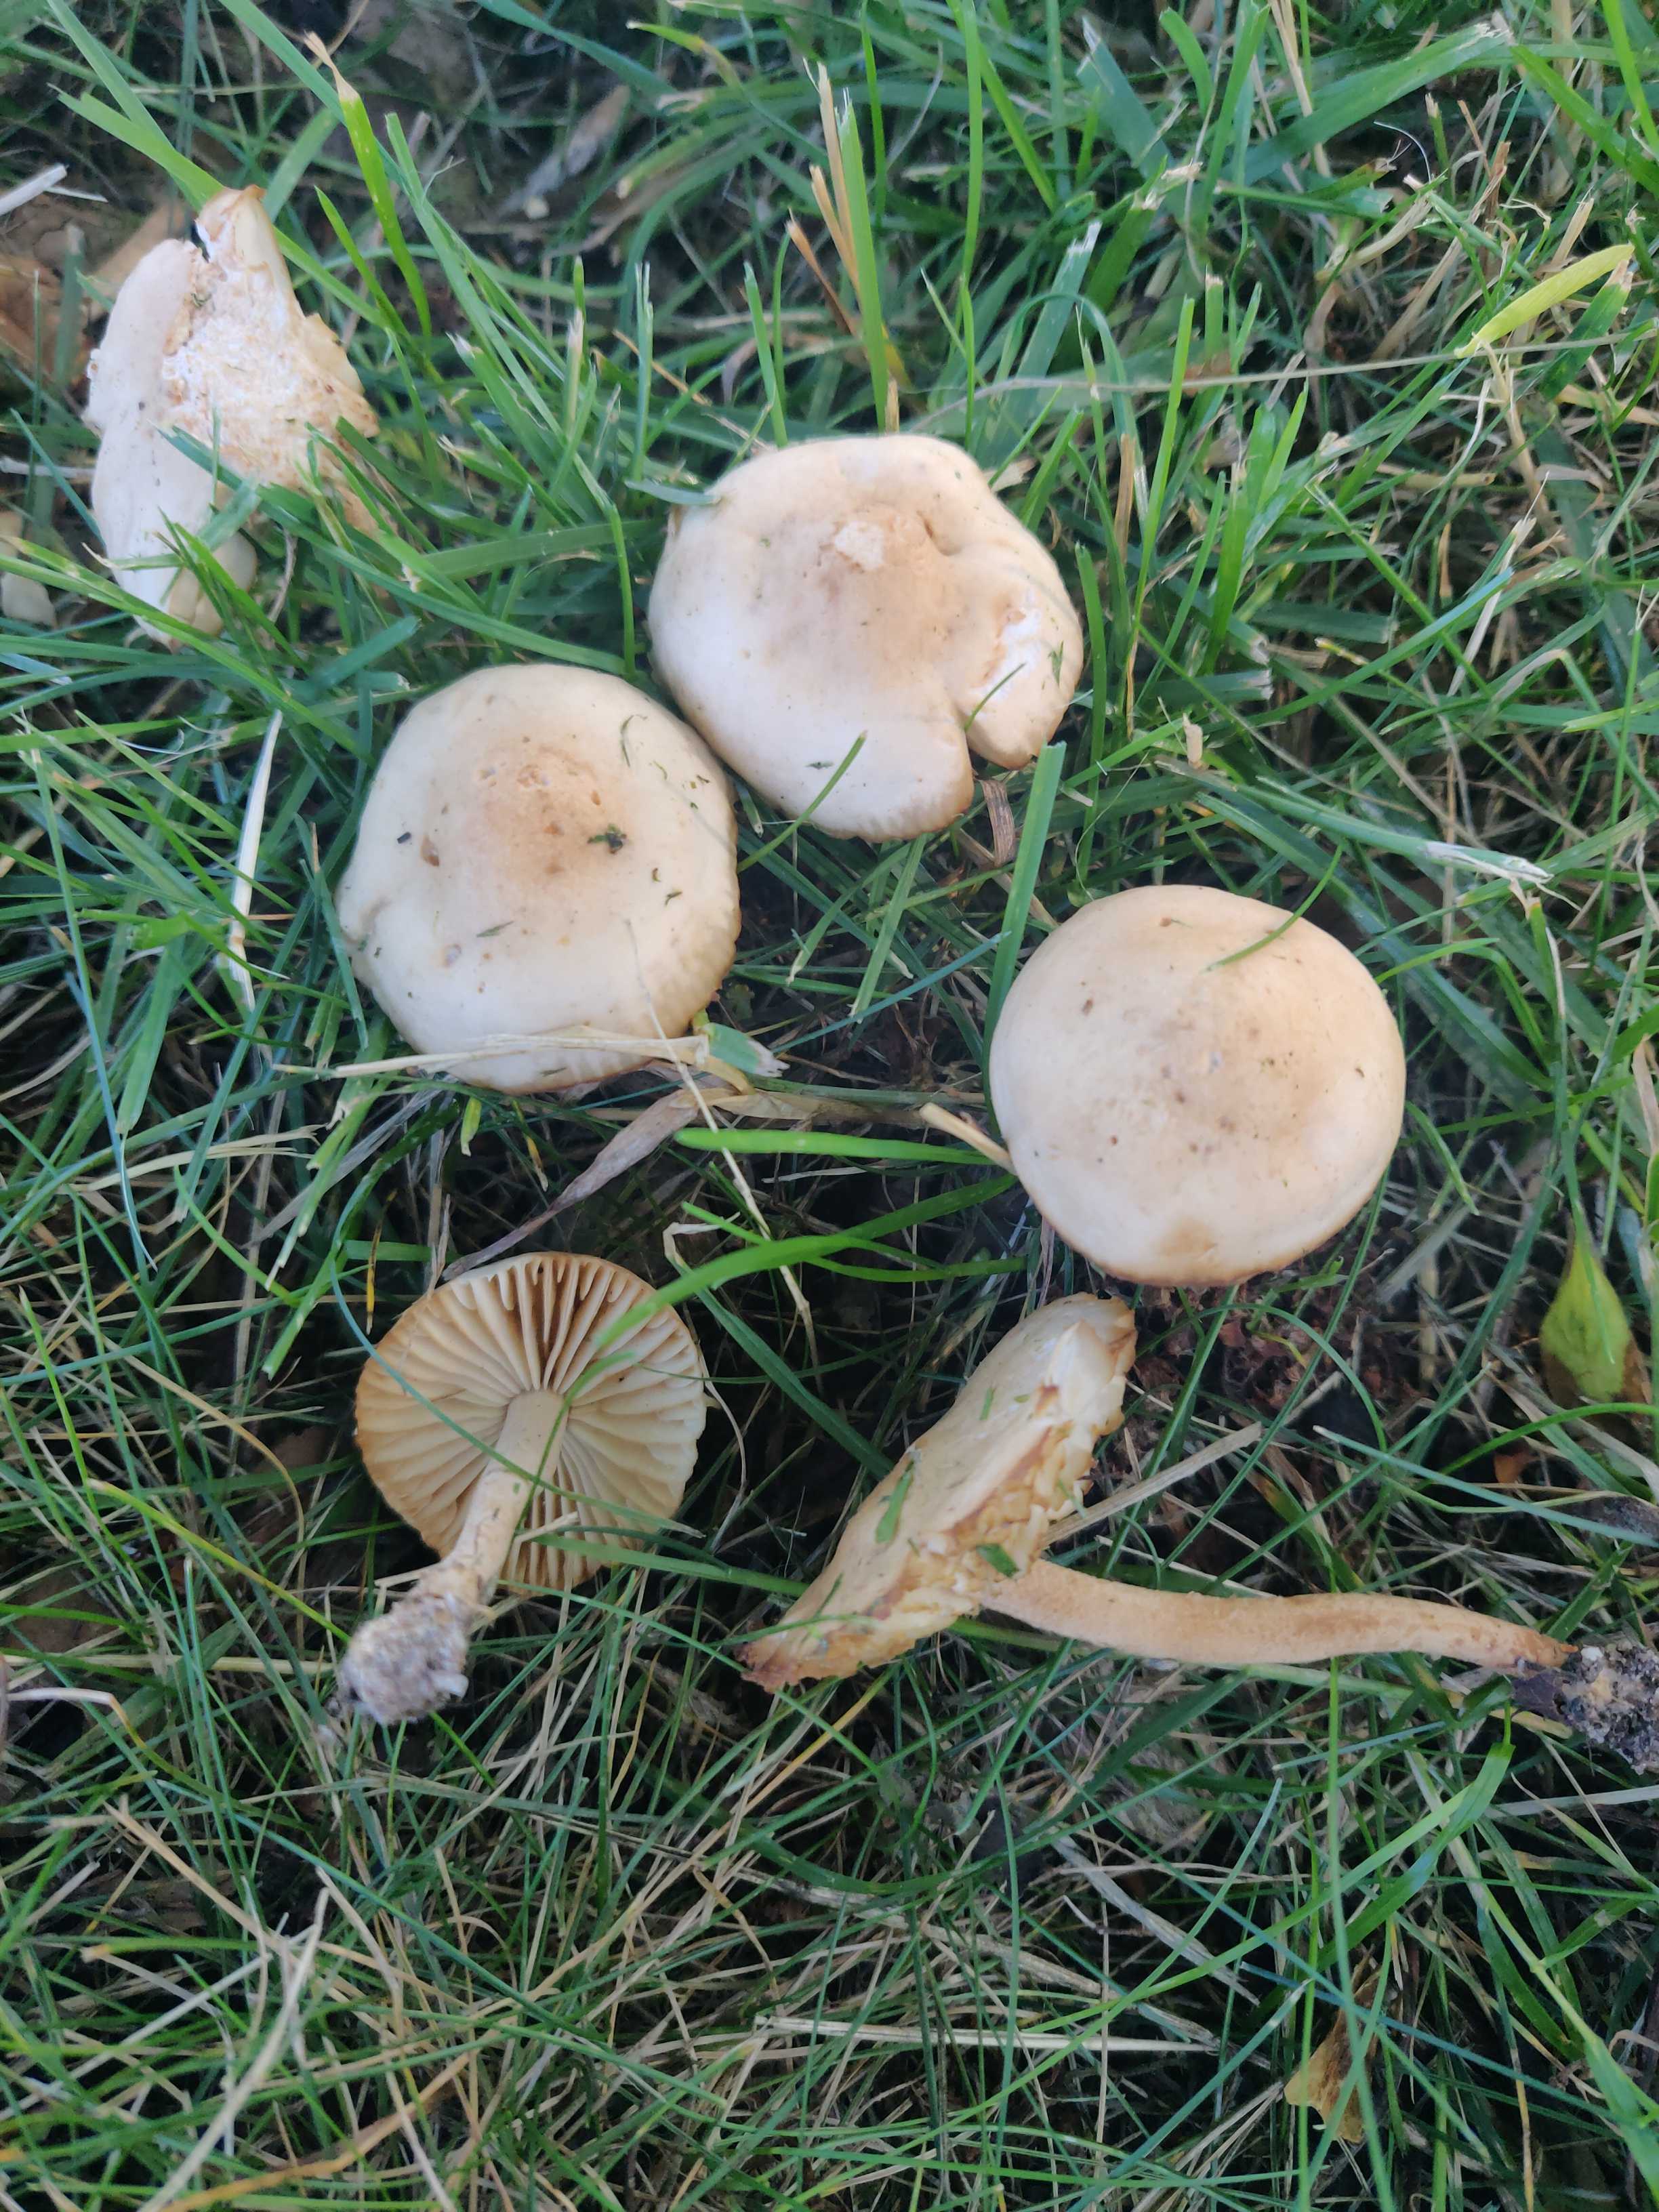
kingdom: Fungi
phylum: Basidiomycota
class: Agaricomycetes
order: Agaricales
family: Marasmiaceae
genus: Marasmius
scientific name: Marasmius oreades
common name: elledans-bruskhat
